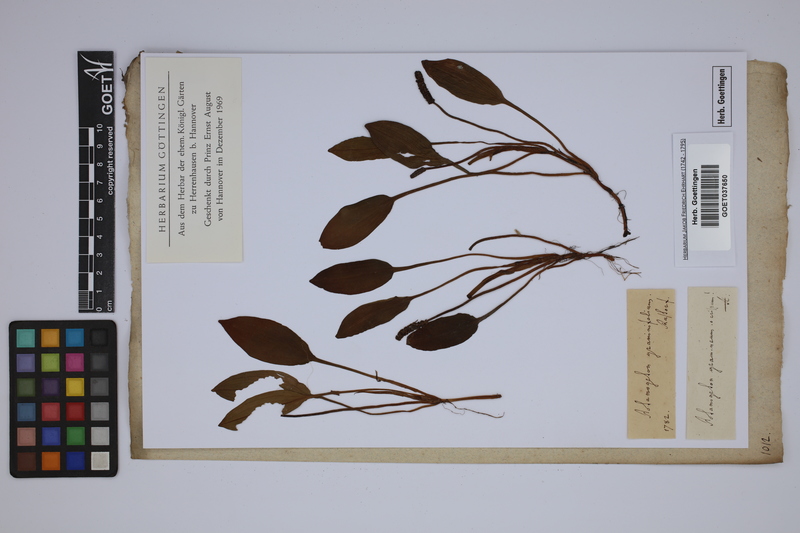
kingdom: Plantae
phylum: Tracheophyta
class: Liliopsida
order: Alismatales
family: Potamogetonaceae
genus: Potamogeton
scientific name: Potamogeton gramineus
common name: Various-leaved pondweed
